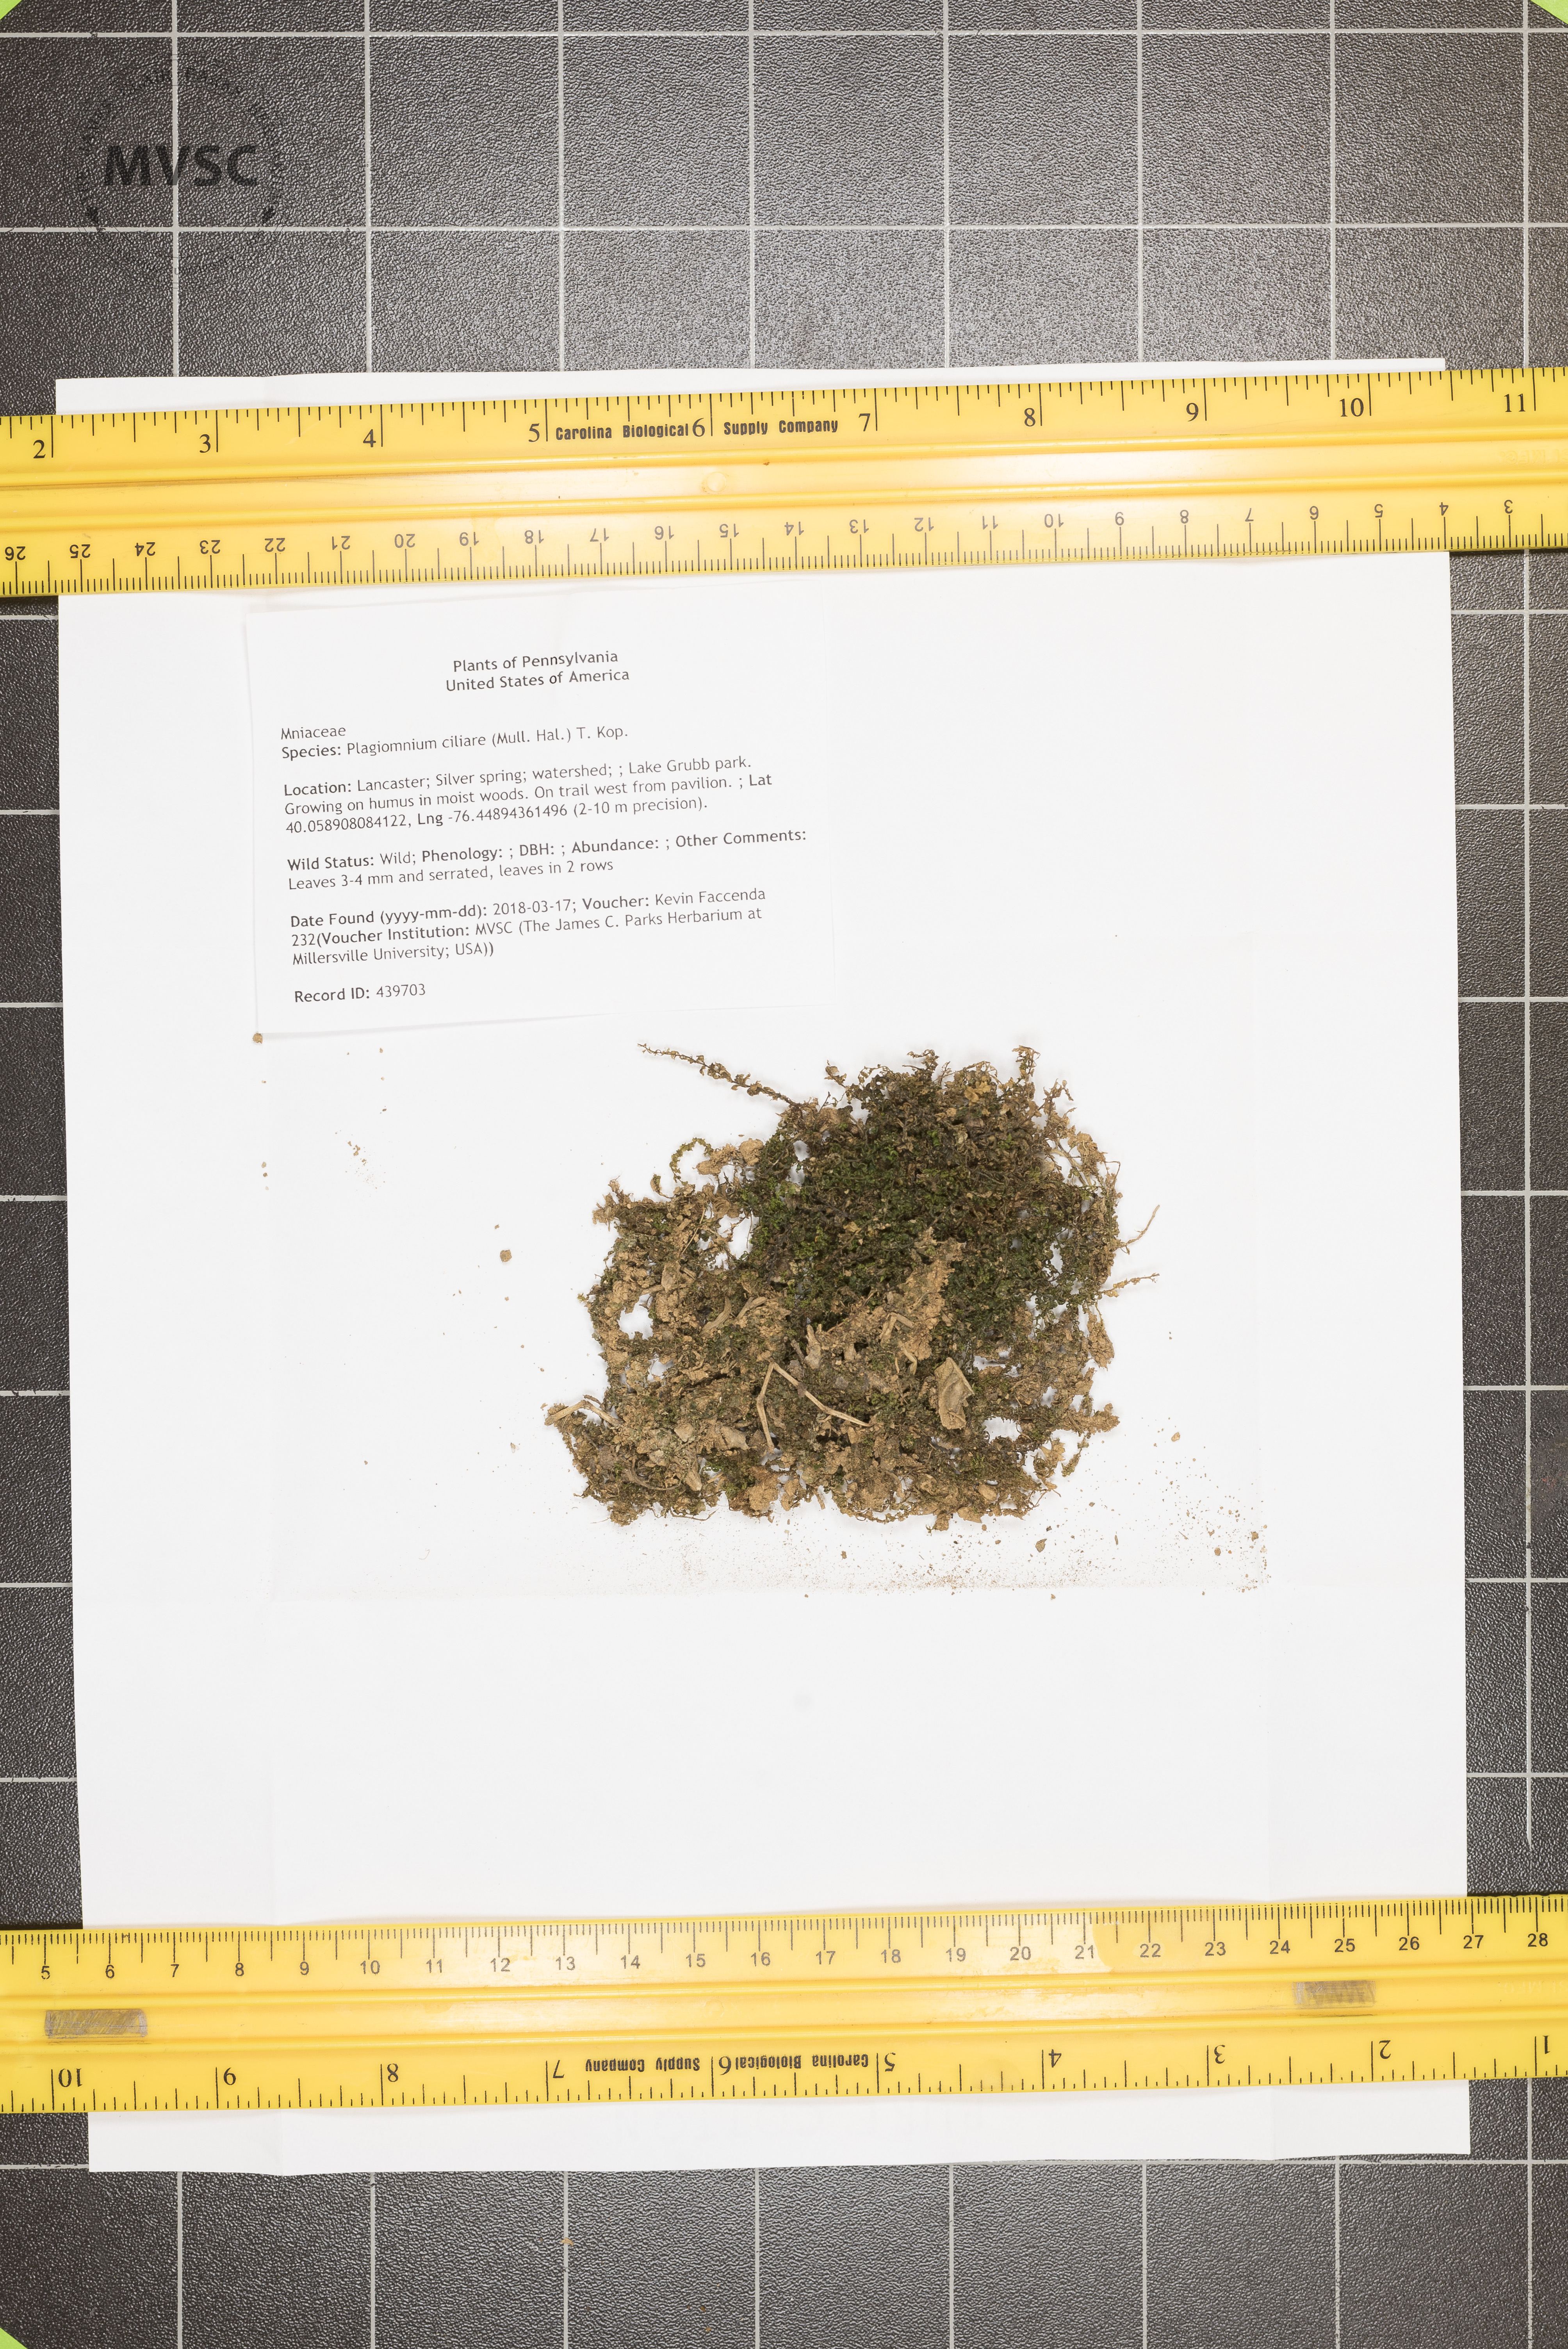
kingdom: Plantae
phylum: Bryophyta
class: Bryopsida
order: Bryales
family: Mniaceae
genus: Plagiomnium
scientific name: Plagiomnium ciliare
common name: Toothed leafy moss
